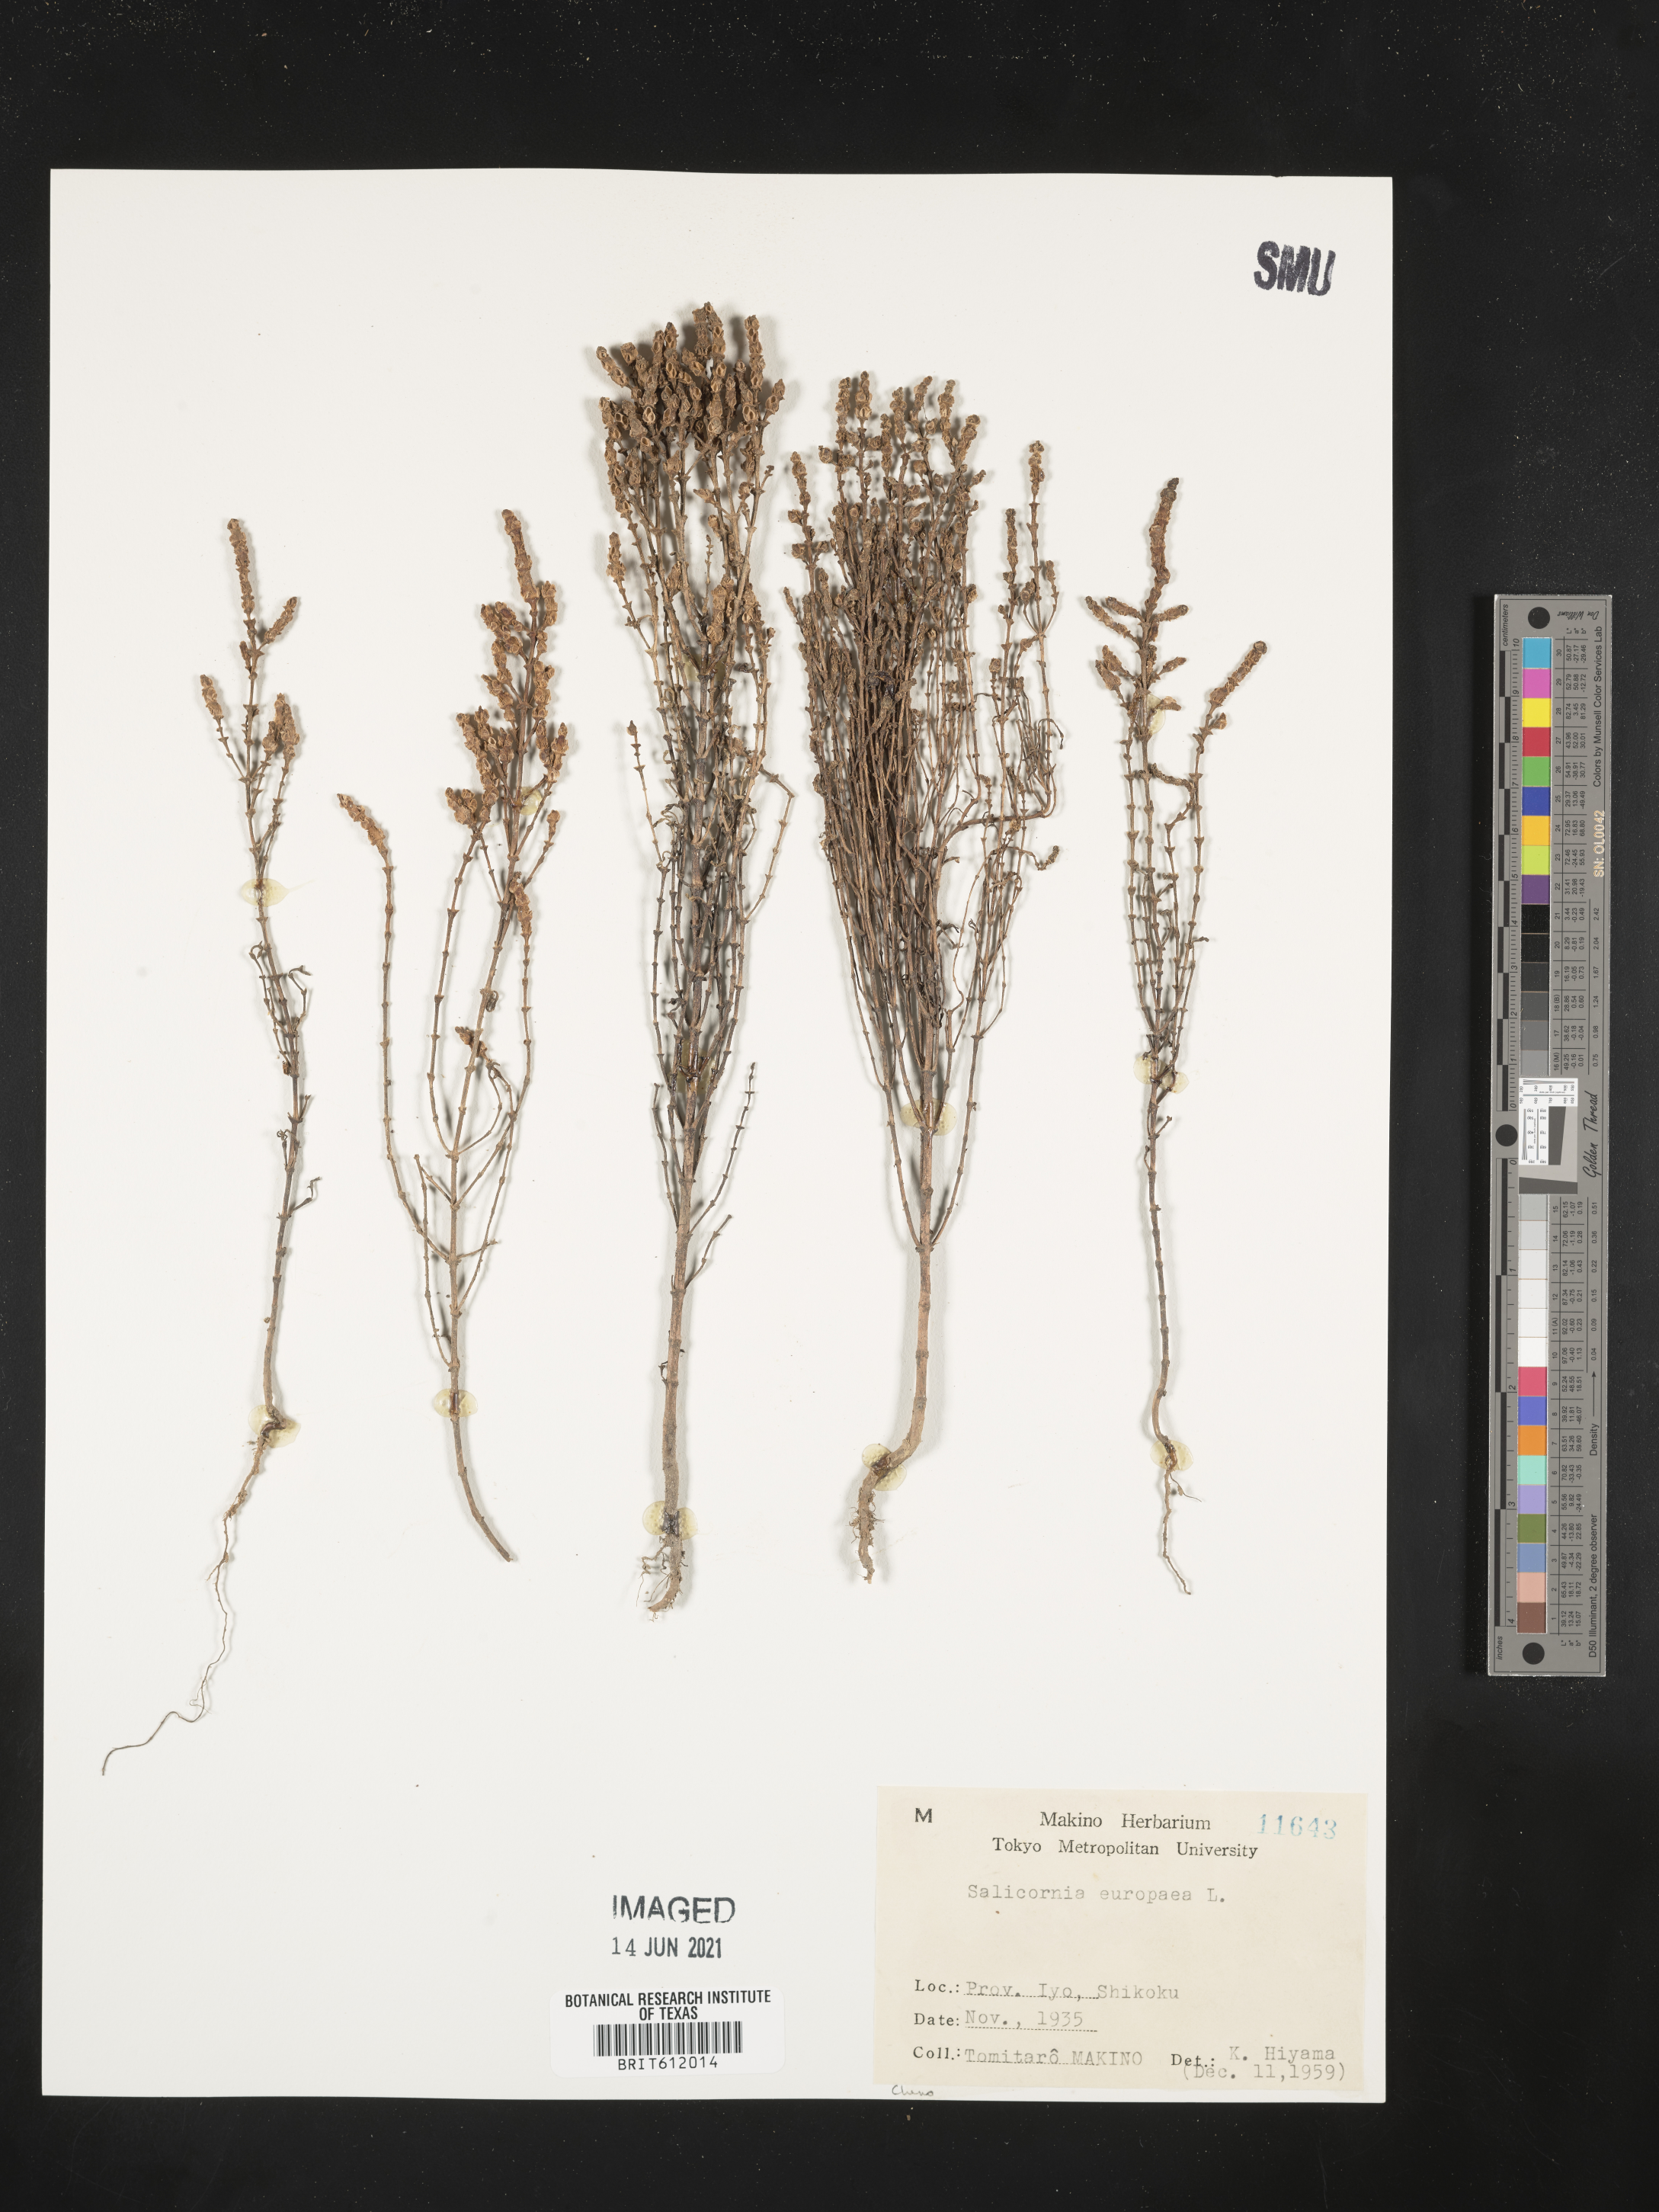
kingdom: Plantae
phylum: Tracheophyta
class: Magnoliopsida
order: Caryophyllales
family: Amaranthaceae
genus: Salicornia
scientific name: Salicornia europaea
